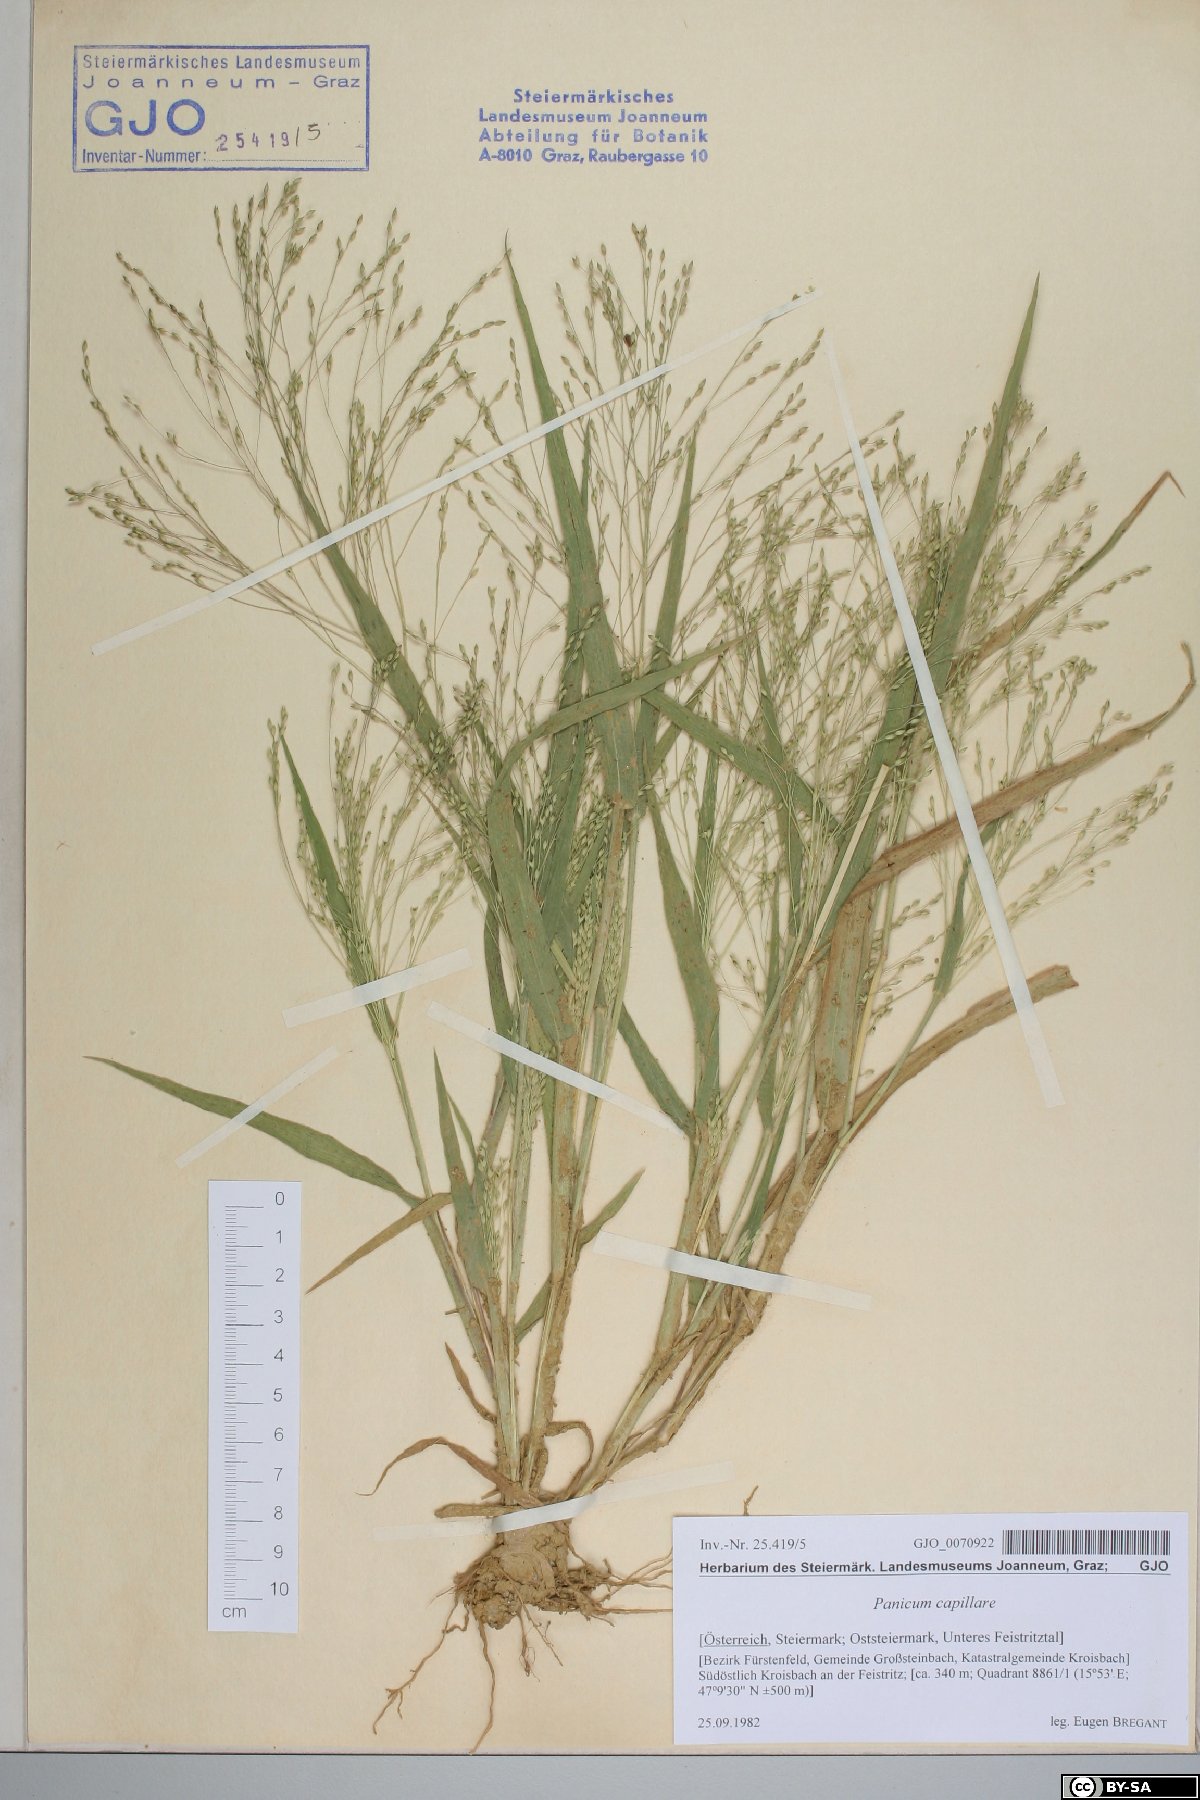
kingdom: Plantae
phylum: Tracheophyta
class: Liliopsida
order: Poales
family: Poaceae
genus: Panicum
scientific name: Panicum capillare
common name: Witch-grass
